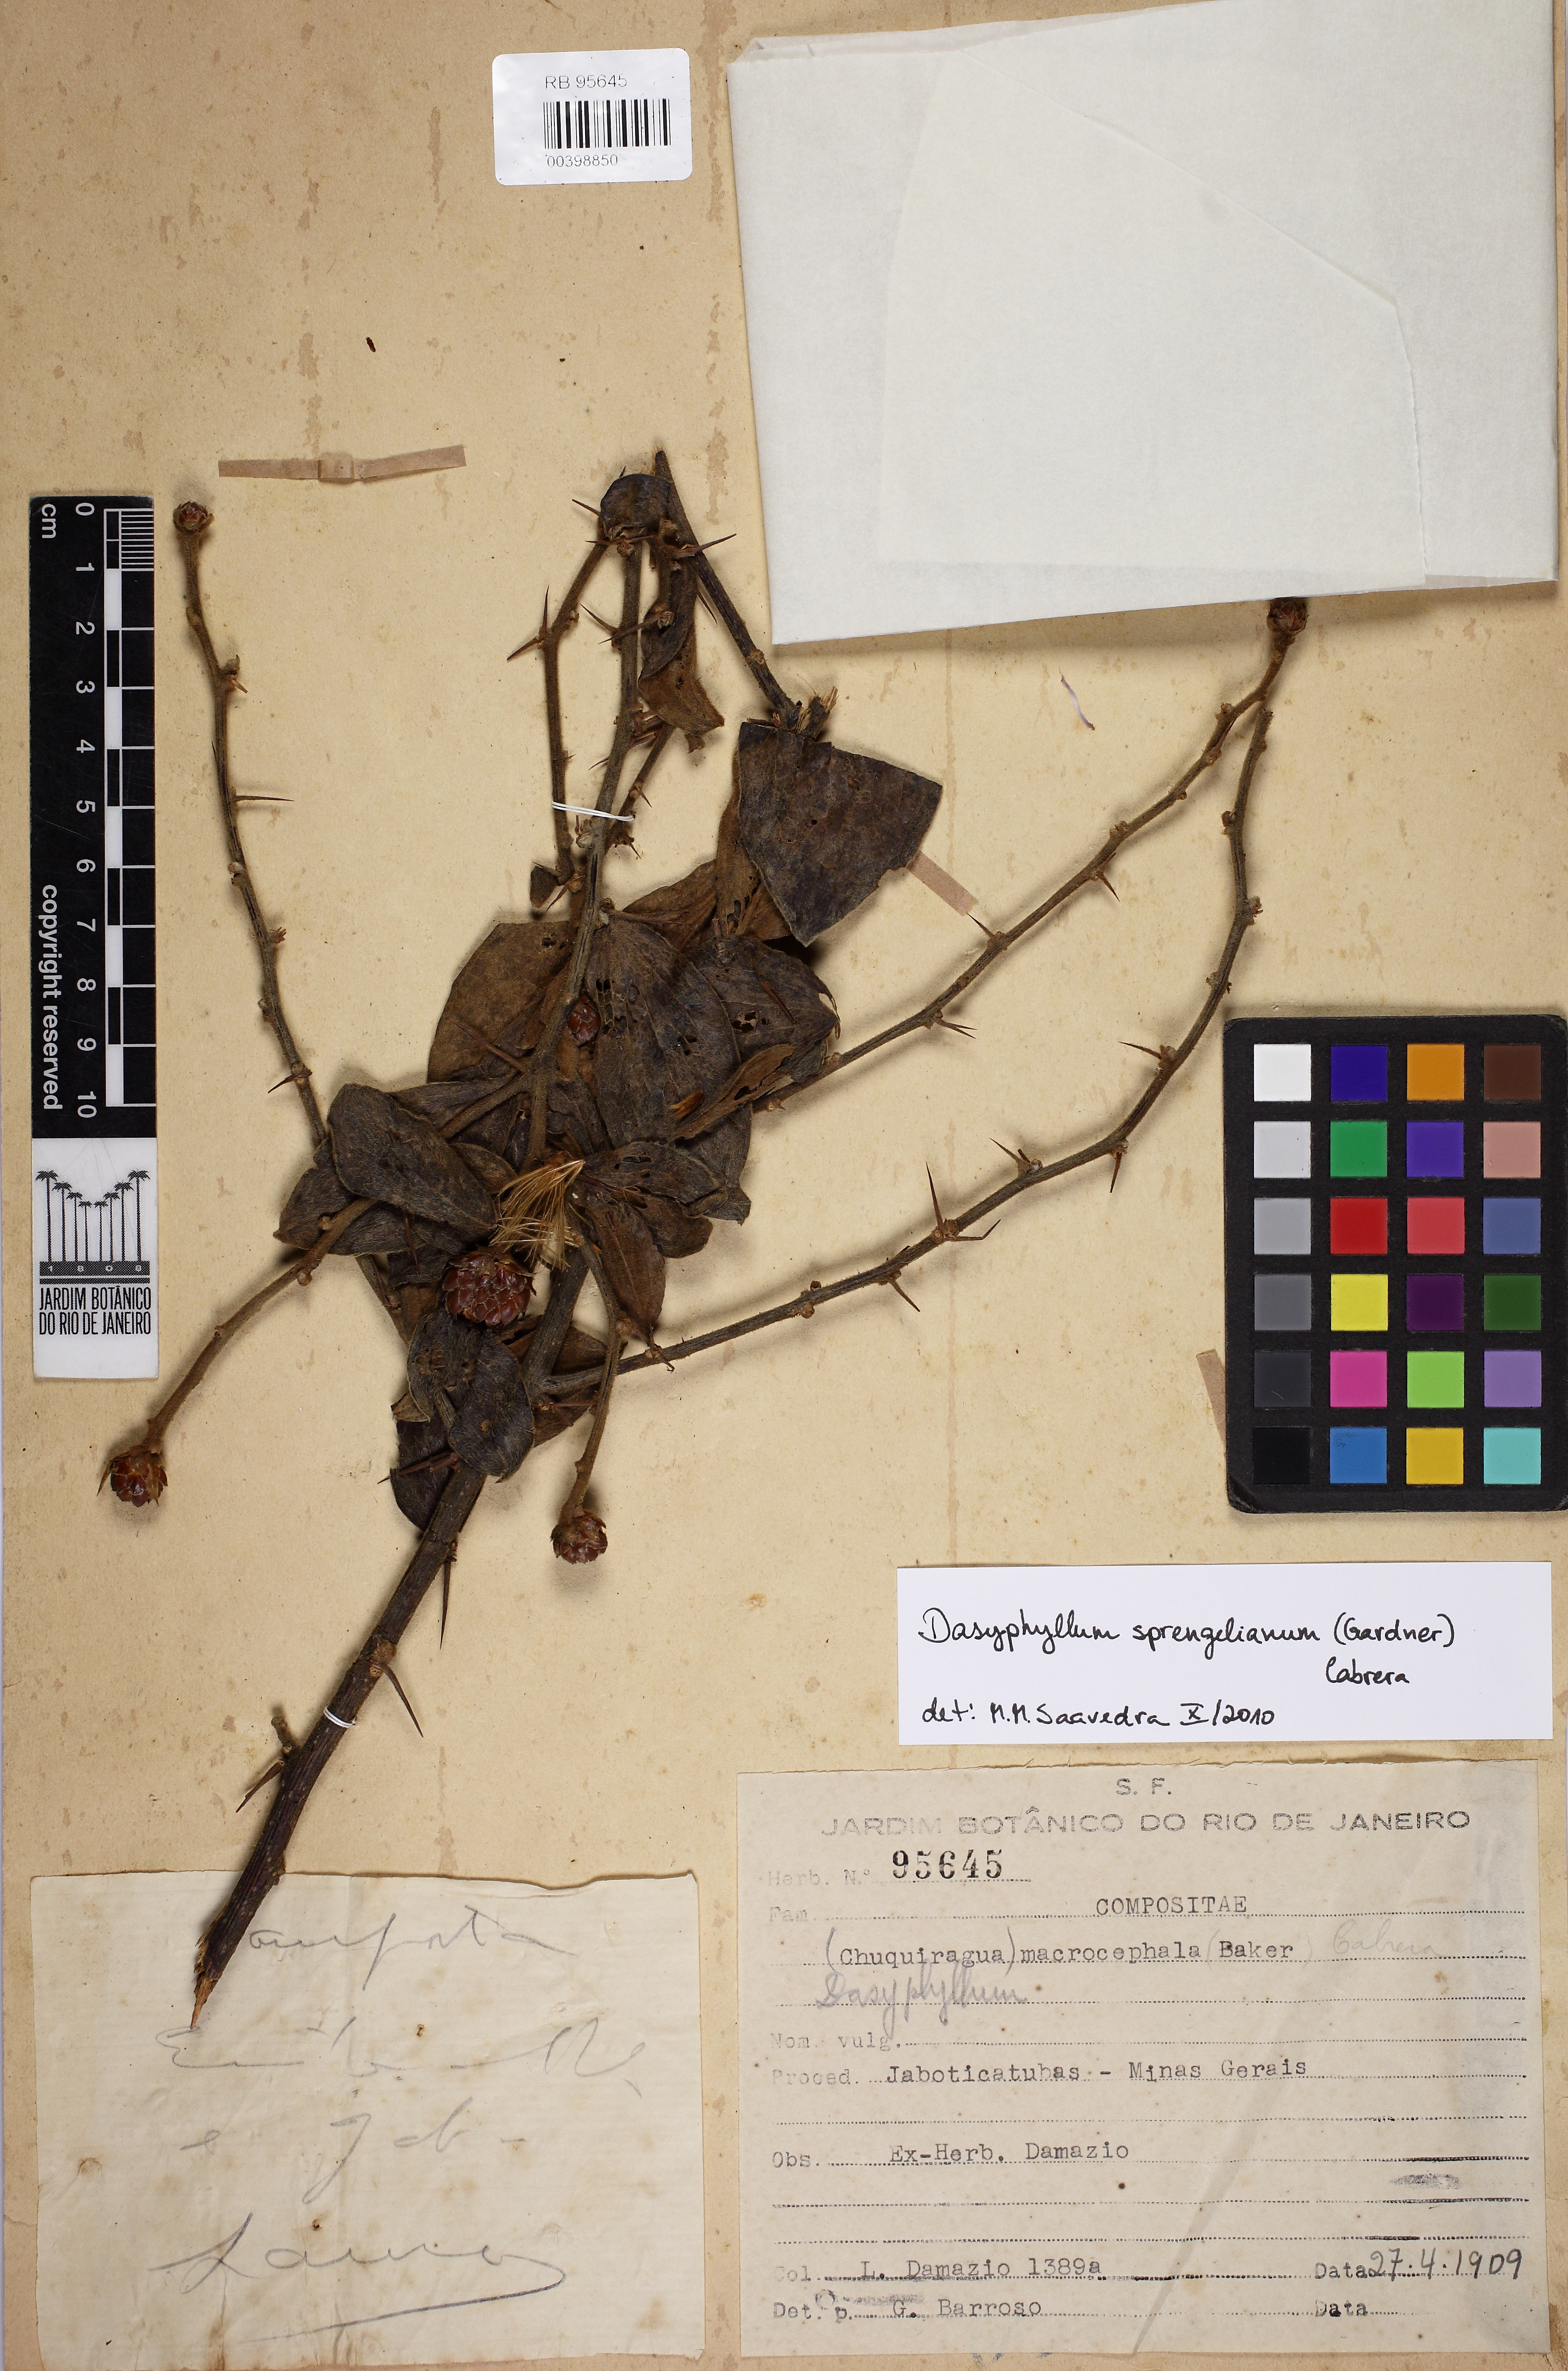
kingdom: Plantae
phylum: Tracheophyta
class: Magnoliopsida
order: Asterales
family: Asteraceae
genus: Dasyphyllum
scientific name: Dasyphyllum sprengelianum
